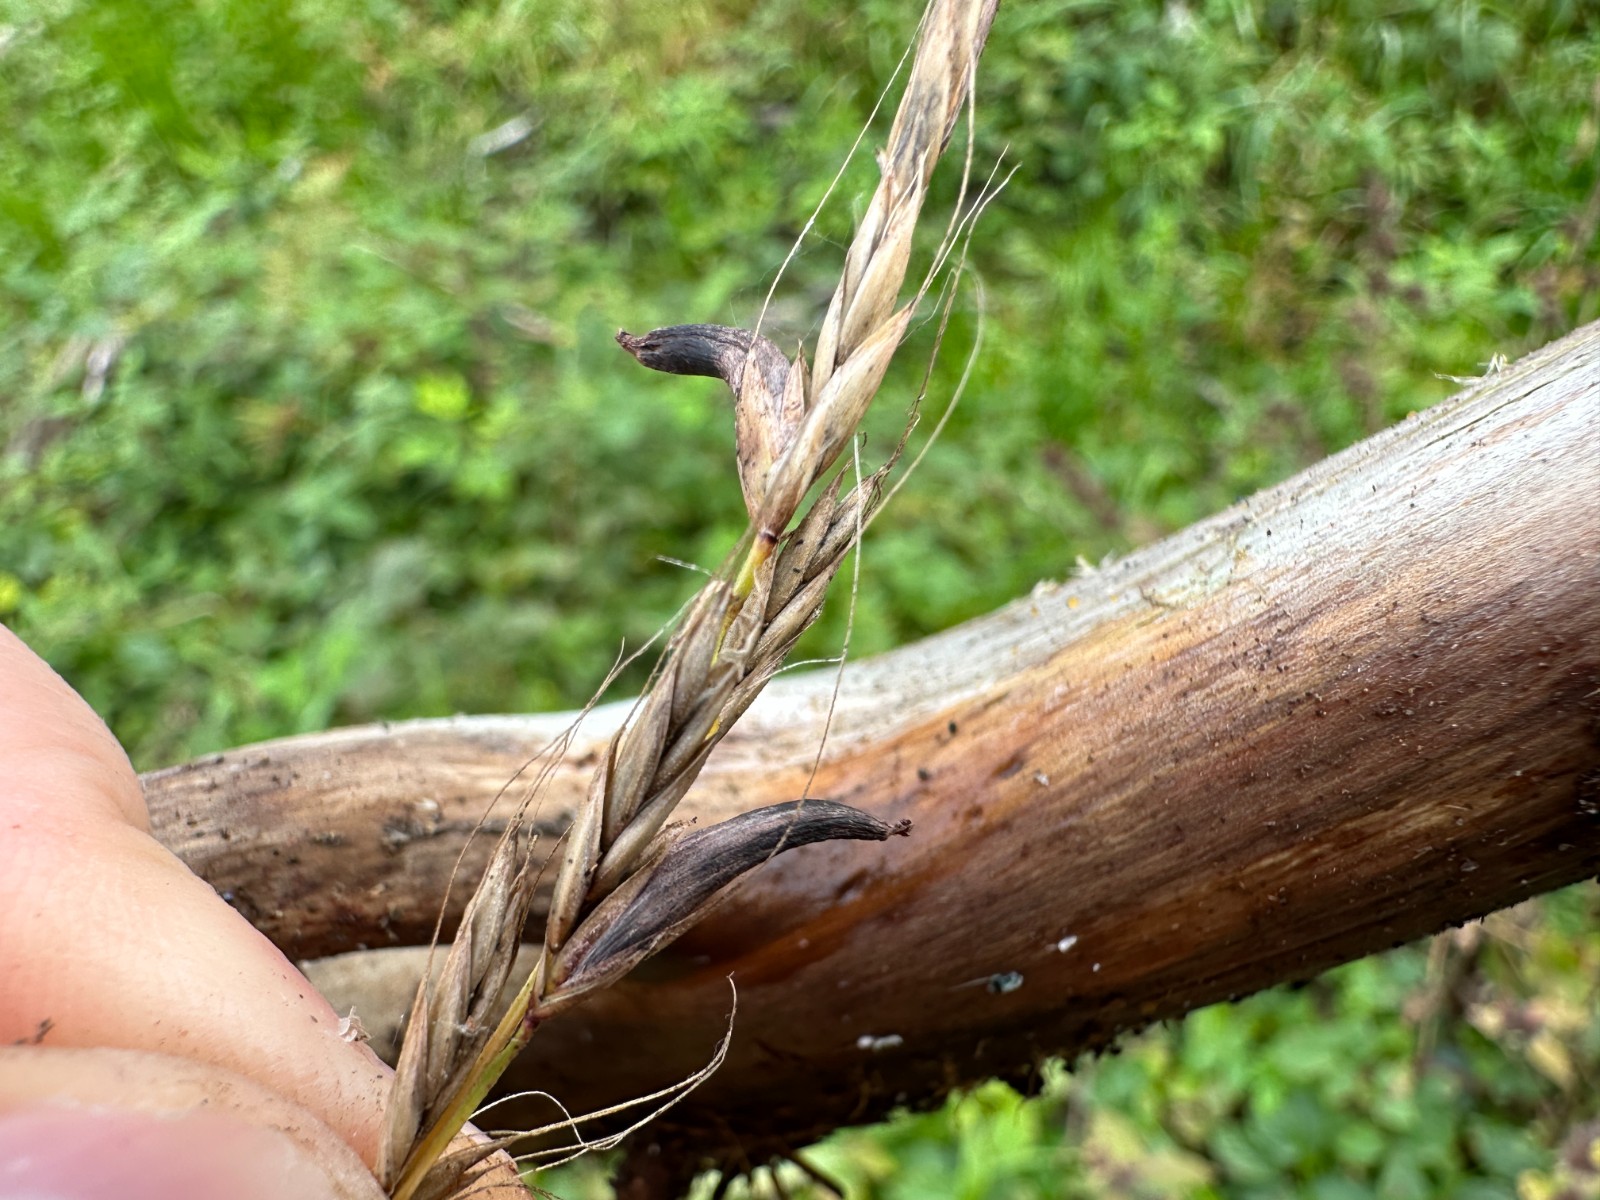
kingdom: Fungi
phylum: Ascomycota
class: Sordariomycetes
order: Hypocreales
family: Clavicipitaceae
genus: Claviceps
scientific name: Claviceps purpurea
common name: almindelig meldrøjer
